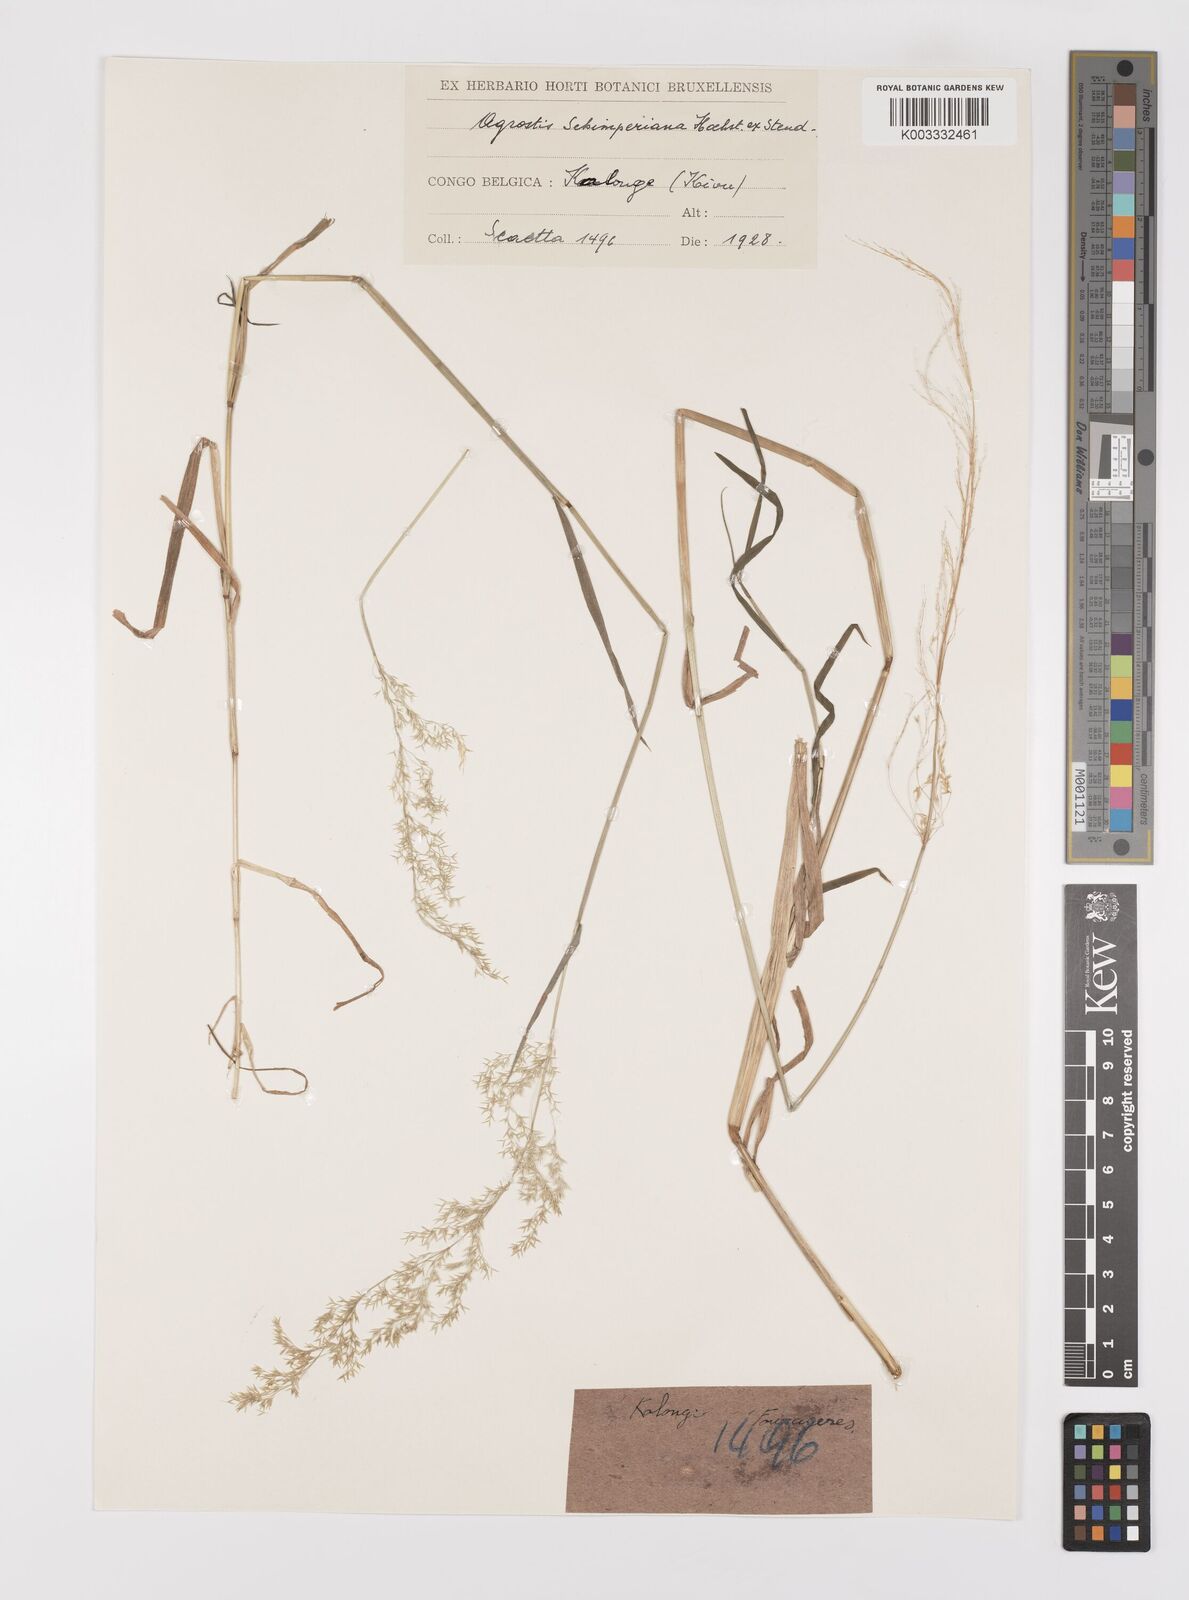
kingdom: Plantae
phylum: Tracheophyta
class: Liliopsida
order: Poales
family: Poaceae
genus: Polypogon
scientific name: Polypogon schimperianus
